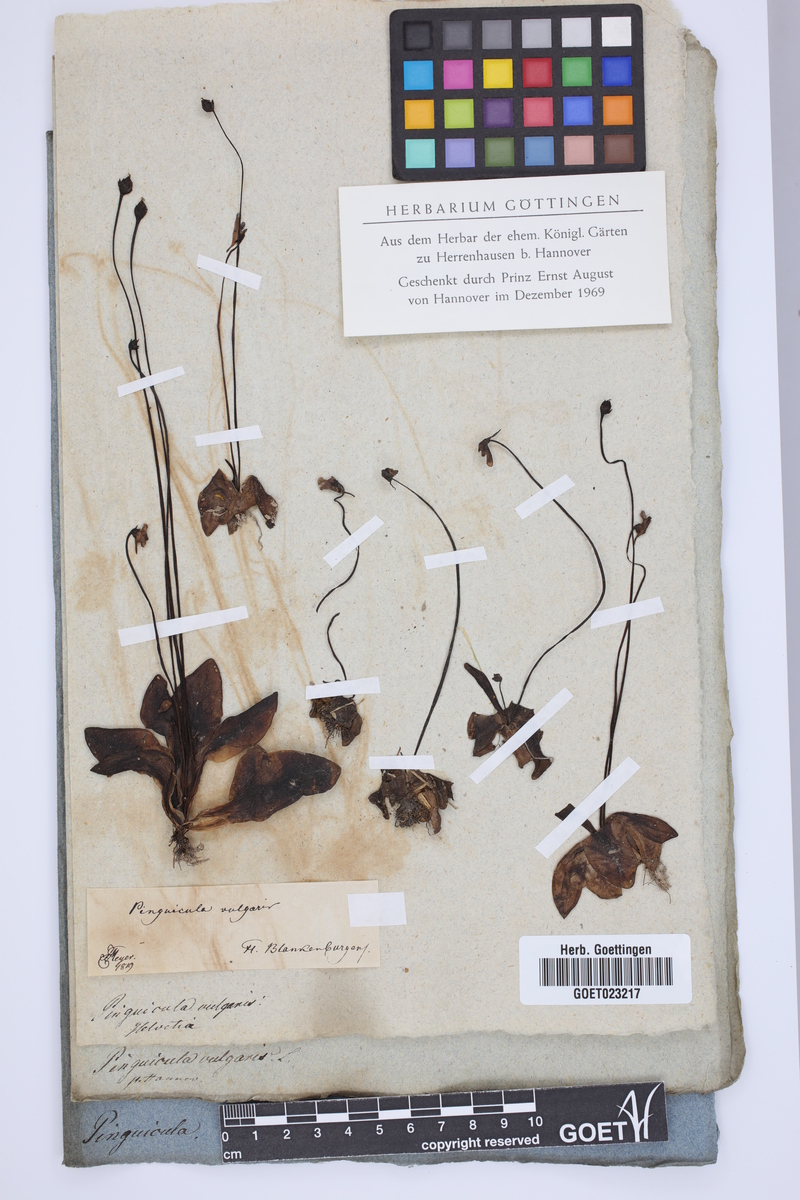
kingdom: Plantae
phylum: Tracheophyta
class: Magnoliopsida
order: Lamiales
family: Lentibulariaceae
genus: Pinguicula
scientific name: Pinguicula vulgaris
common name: Common butterwort
